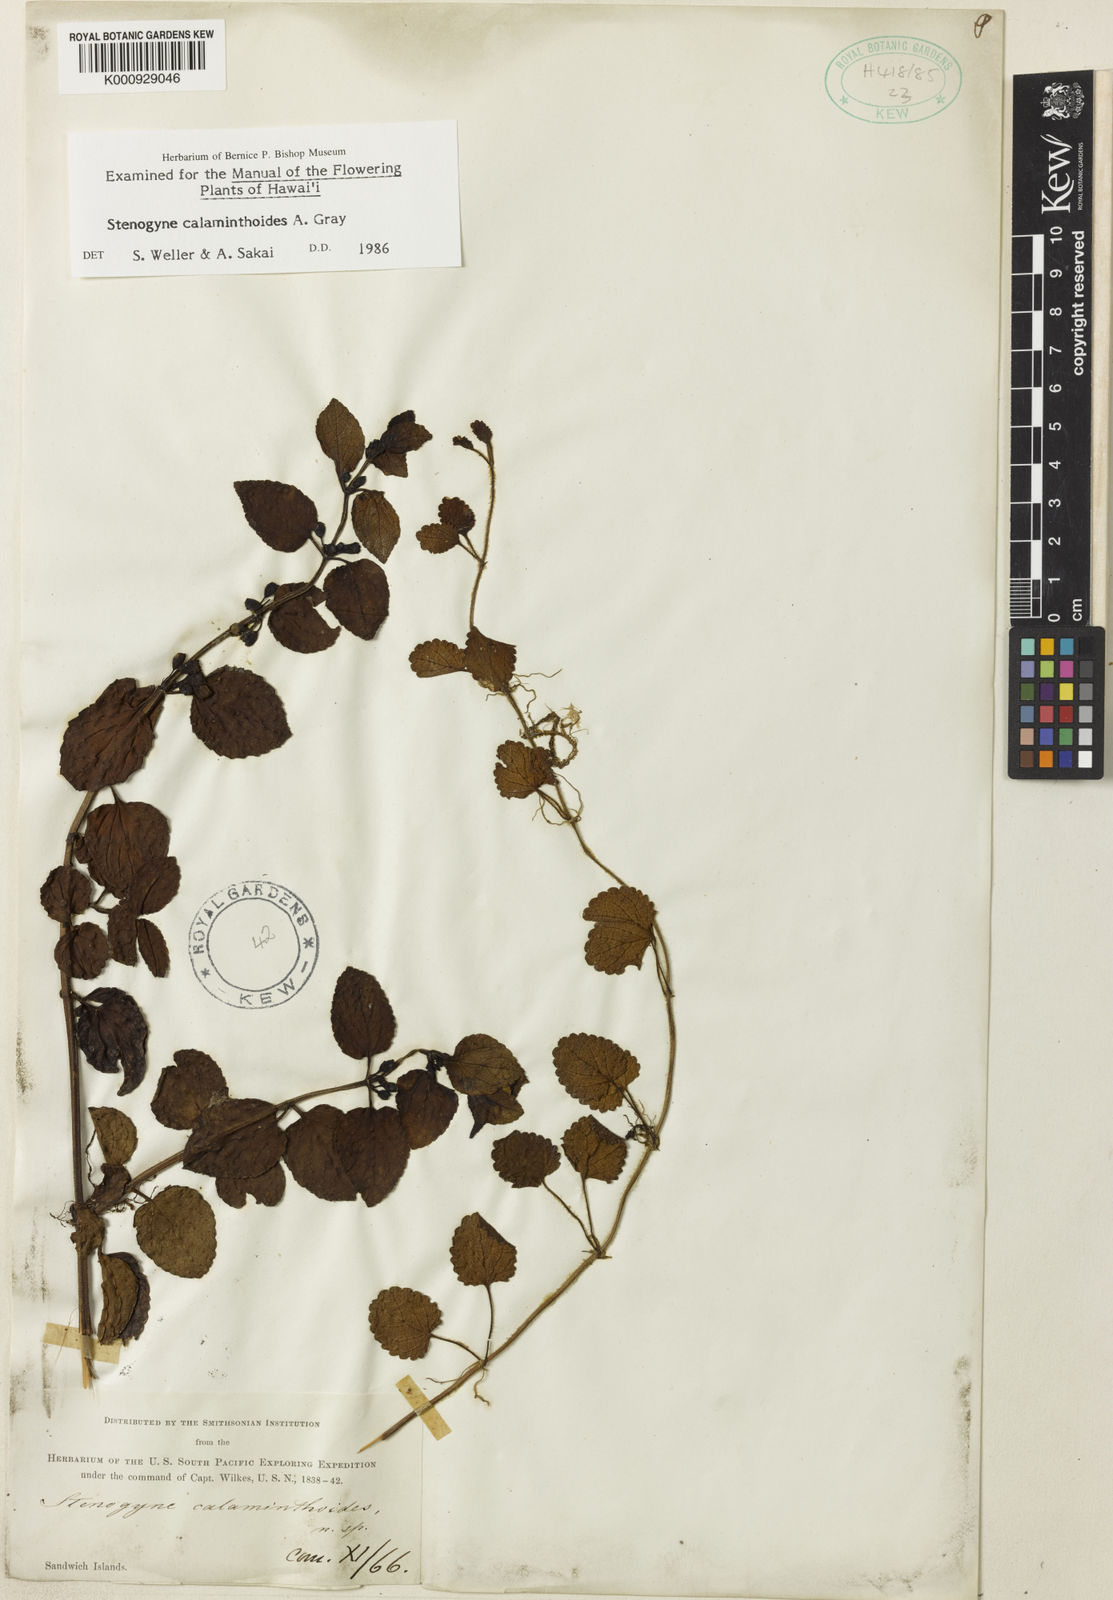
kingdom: Plantae
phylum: Tracheophyta
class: Magnoliopsida
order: Lamiales
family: Lamiaceae
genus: Stenogyne
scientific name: Stenogyne calaminthoides
